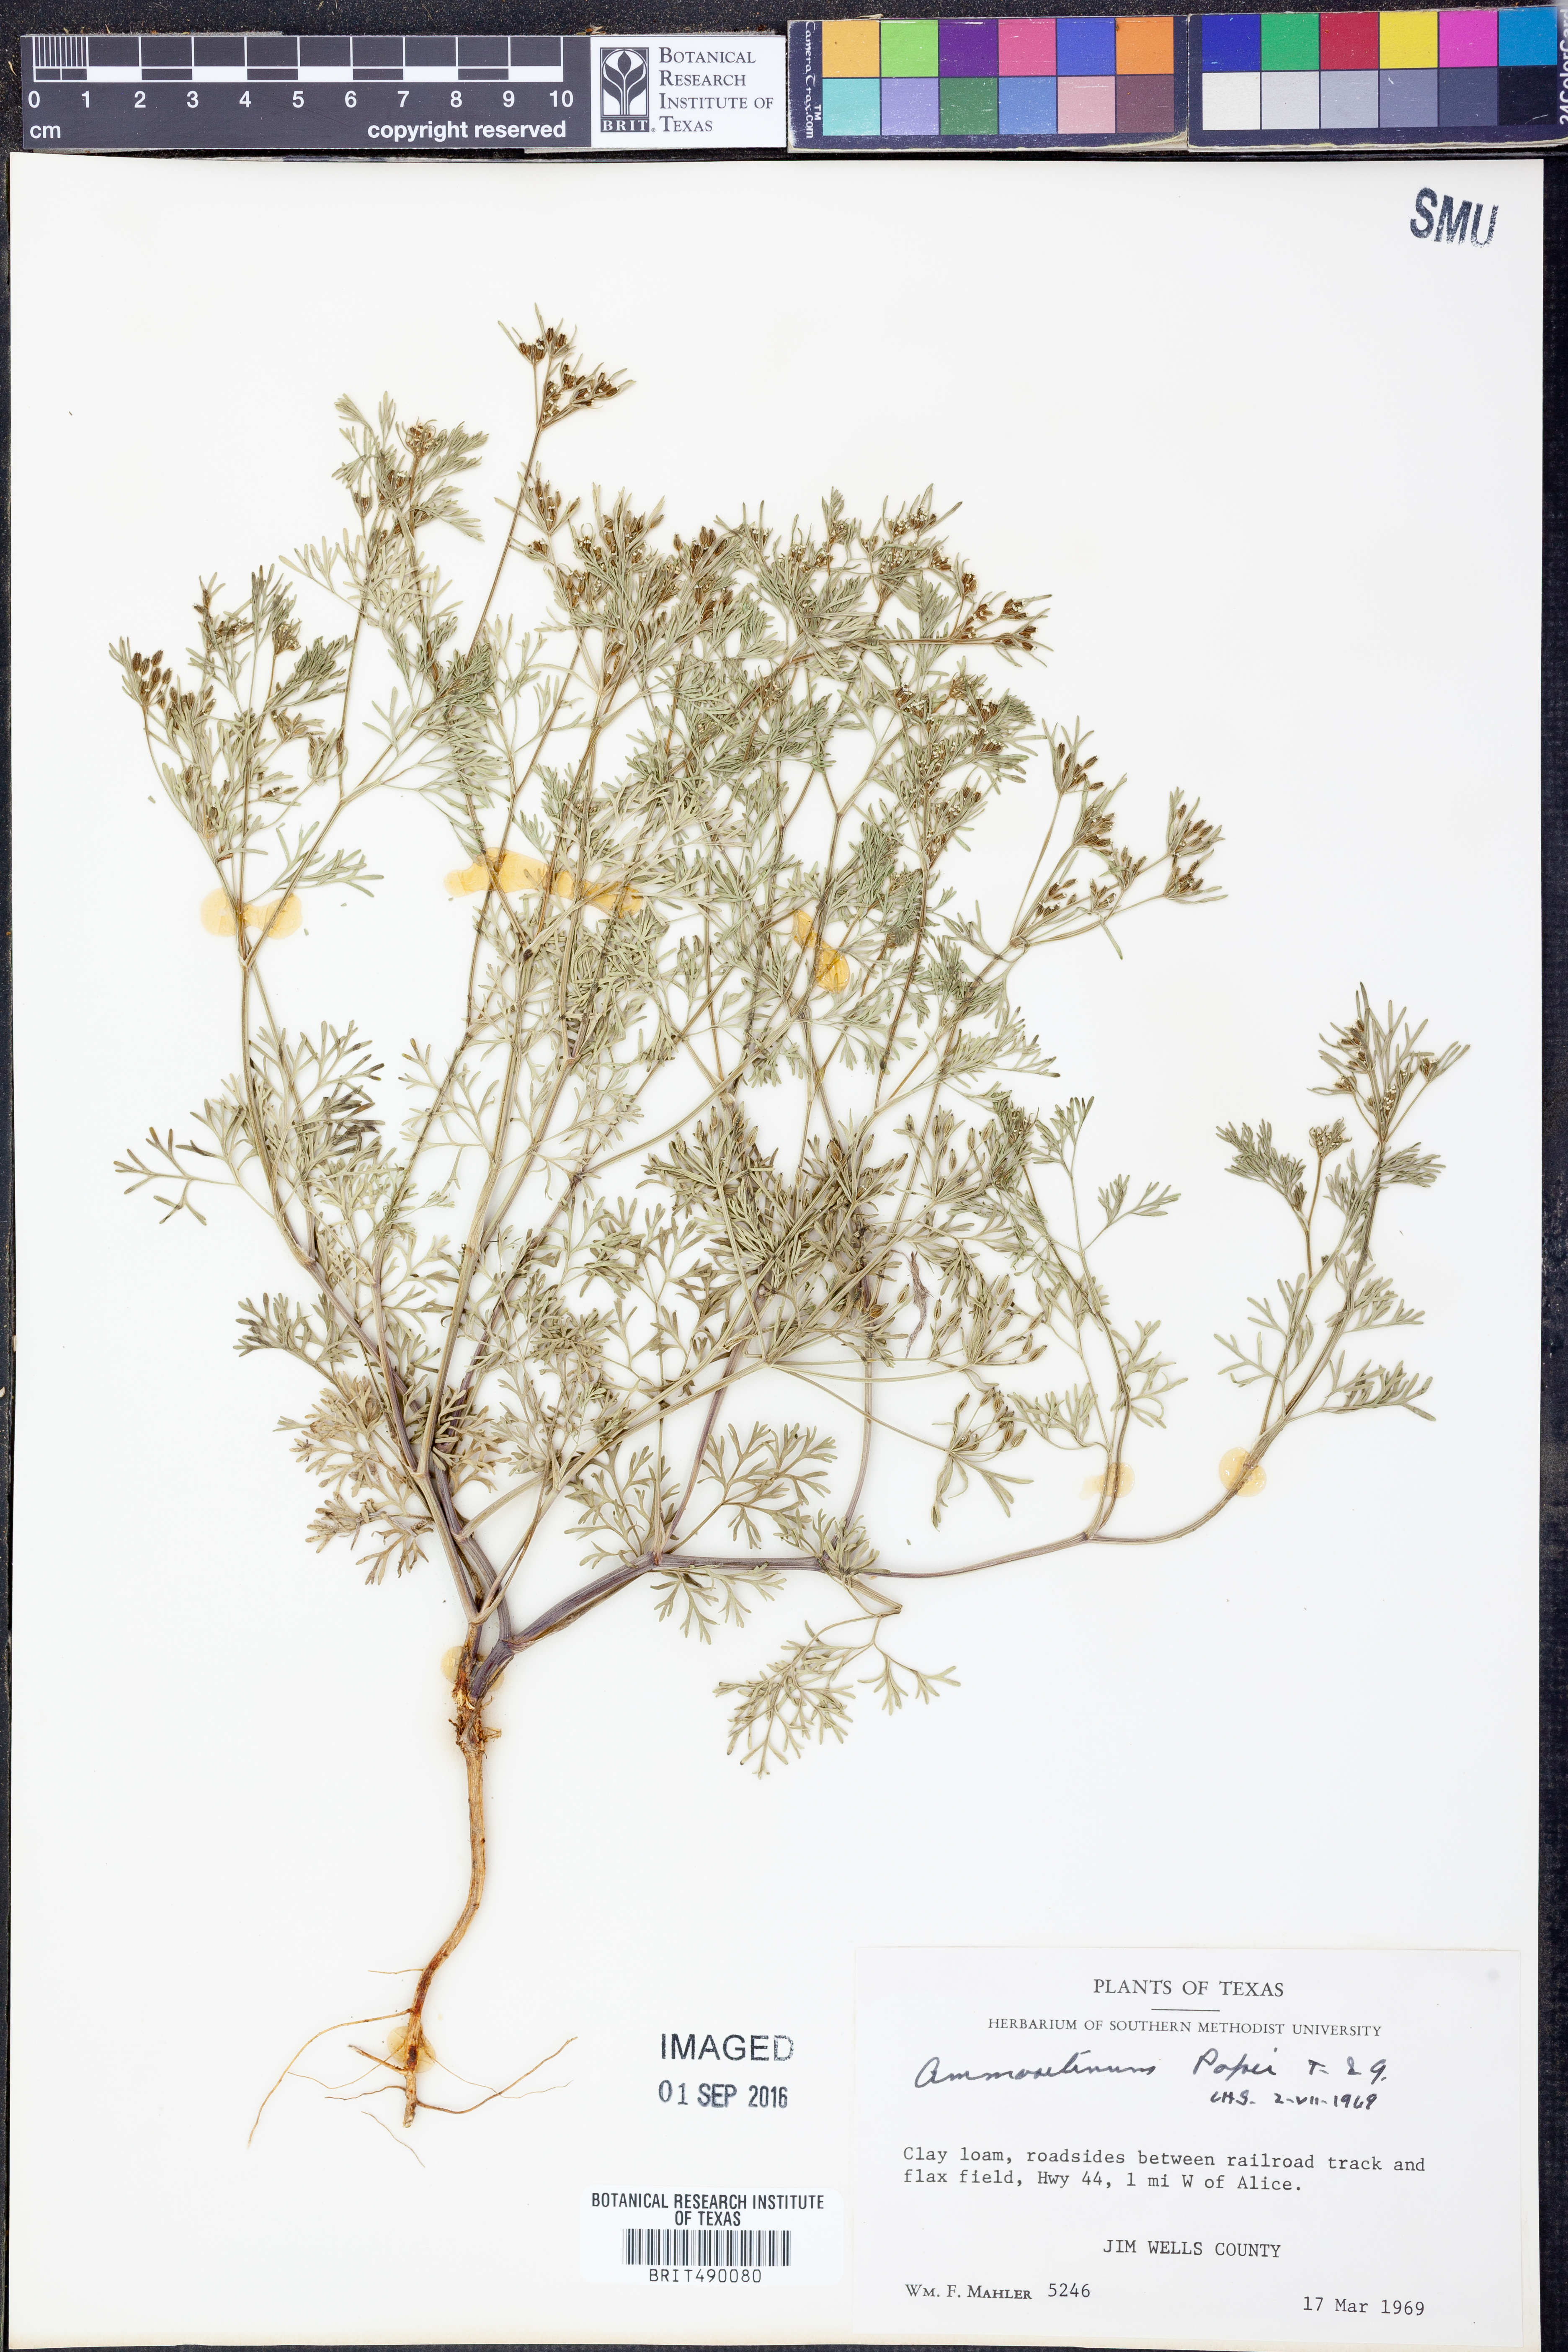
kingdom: Plantae
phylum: Tracheophyta
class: Magnoliopsida
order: Apiales
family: Apiaceae
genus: Ammoselinum
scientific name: Ammoselinum popei
